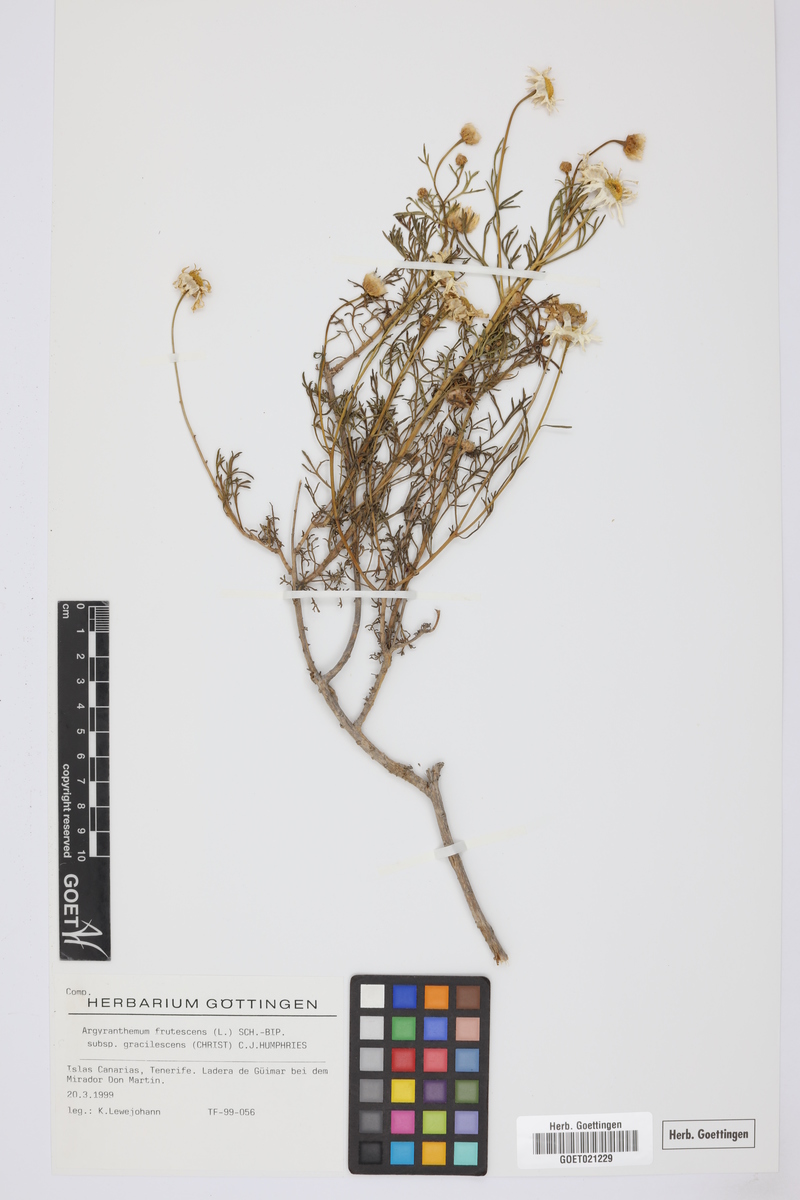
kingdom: Plantae
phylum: Tracheophyta
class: Magnoliopsida
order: Asterales
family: Asteraceae
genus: Argyranthemum
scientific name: Argyranthemum frutescens
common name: Paris daisy
